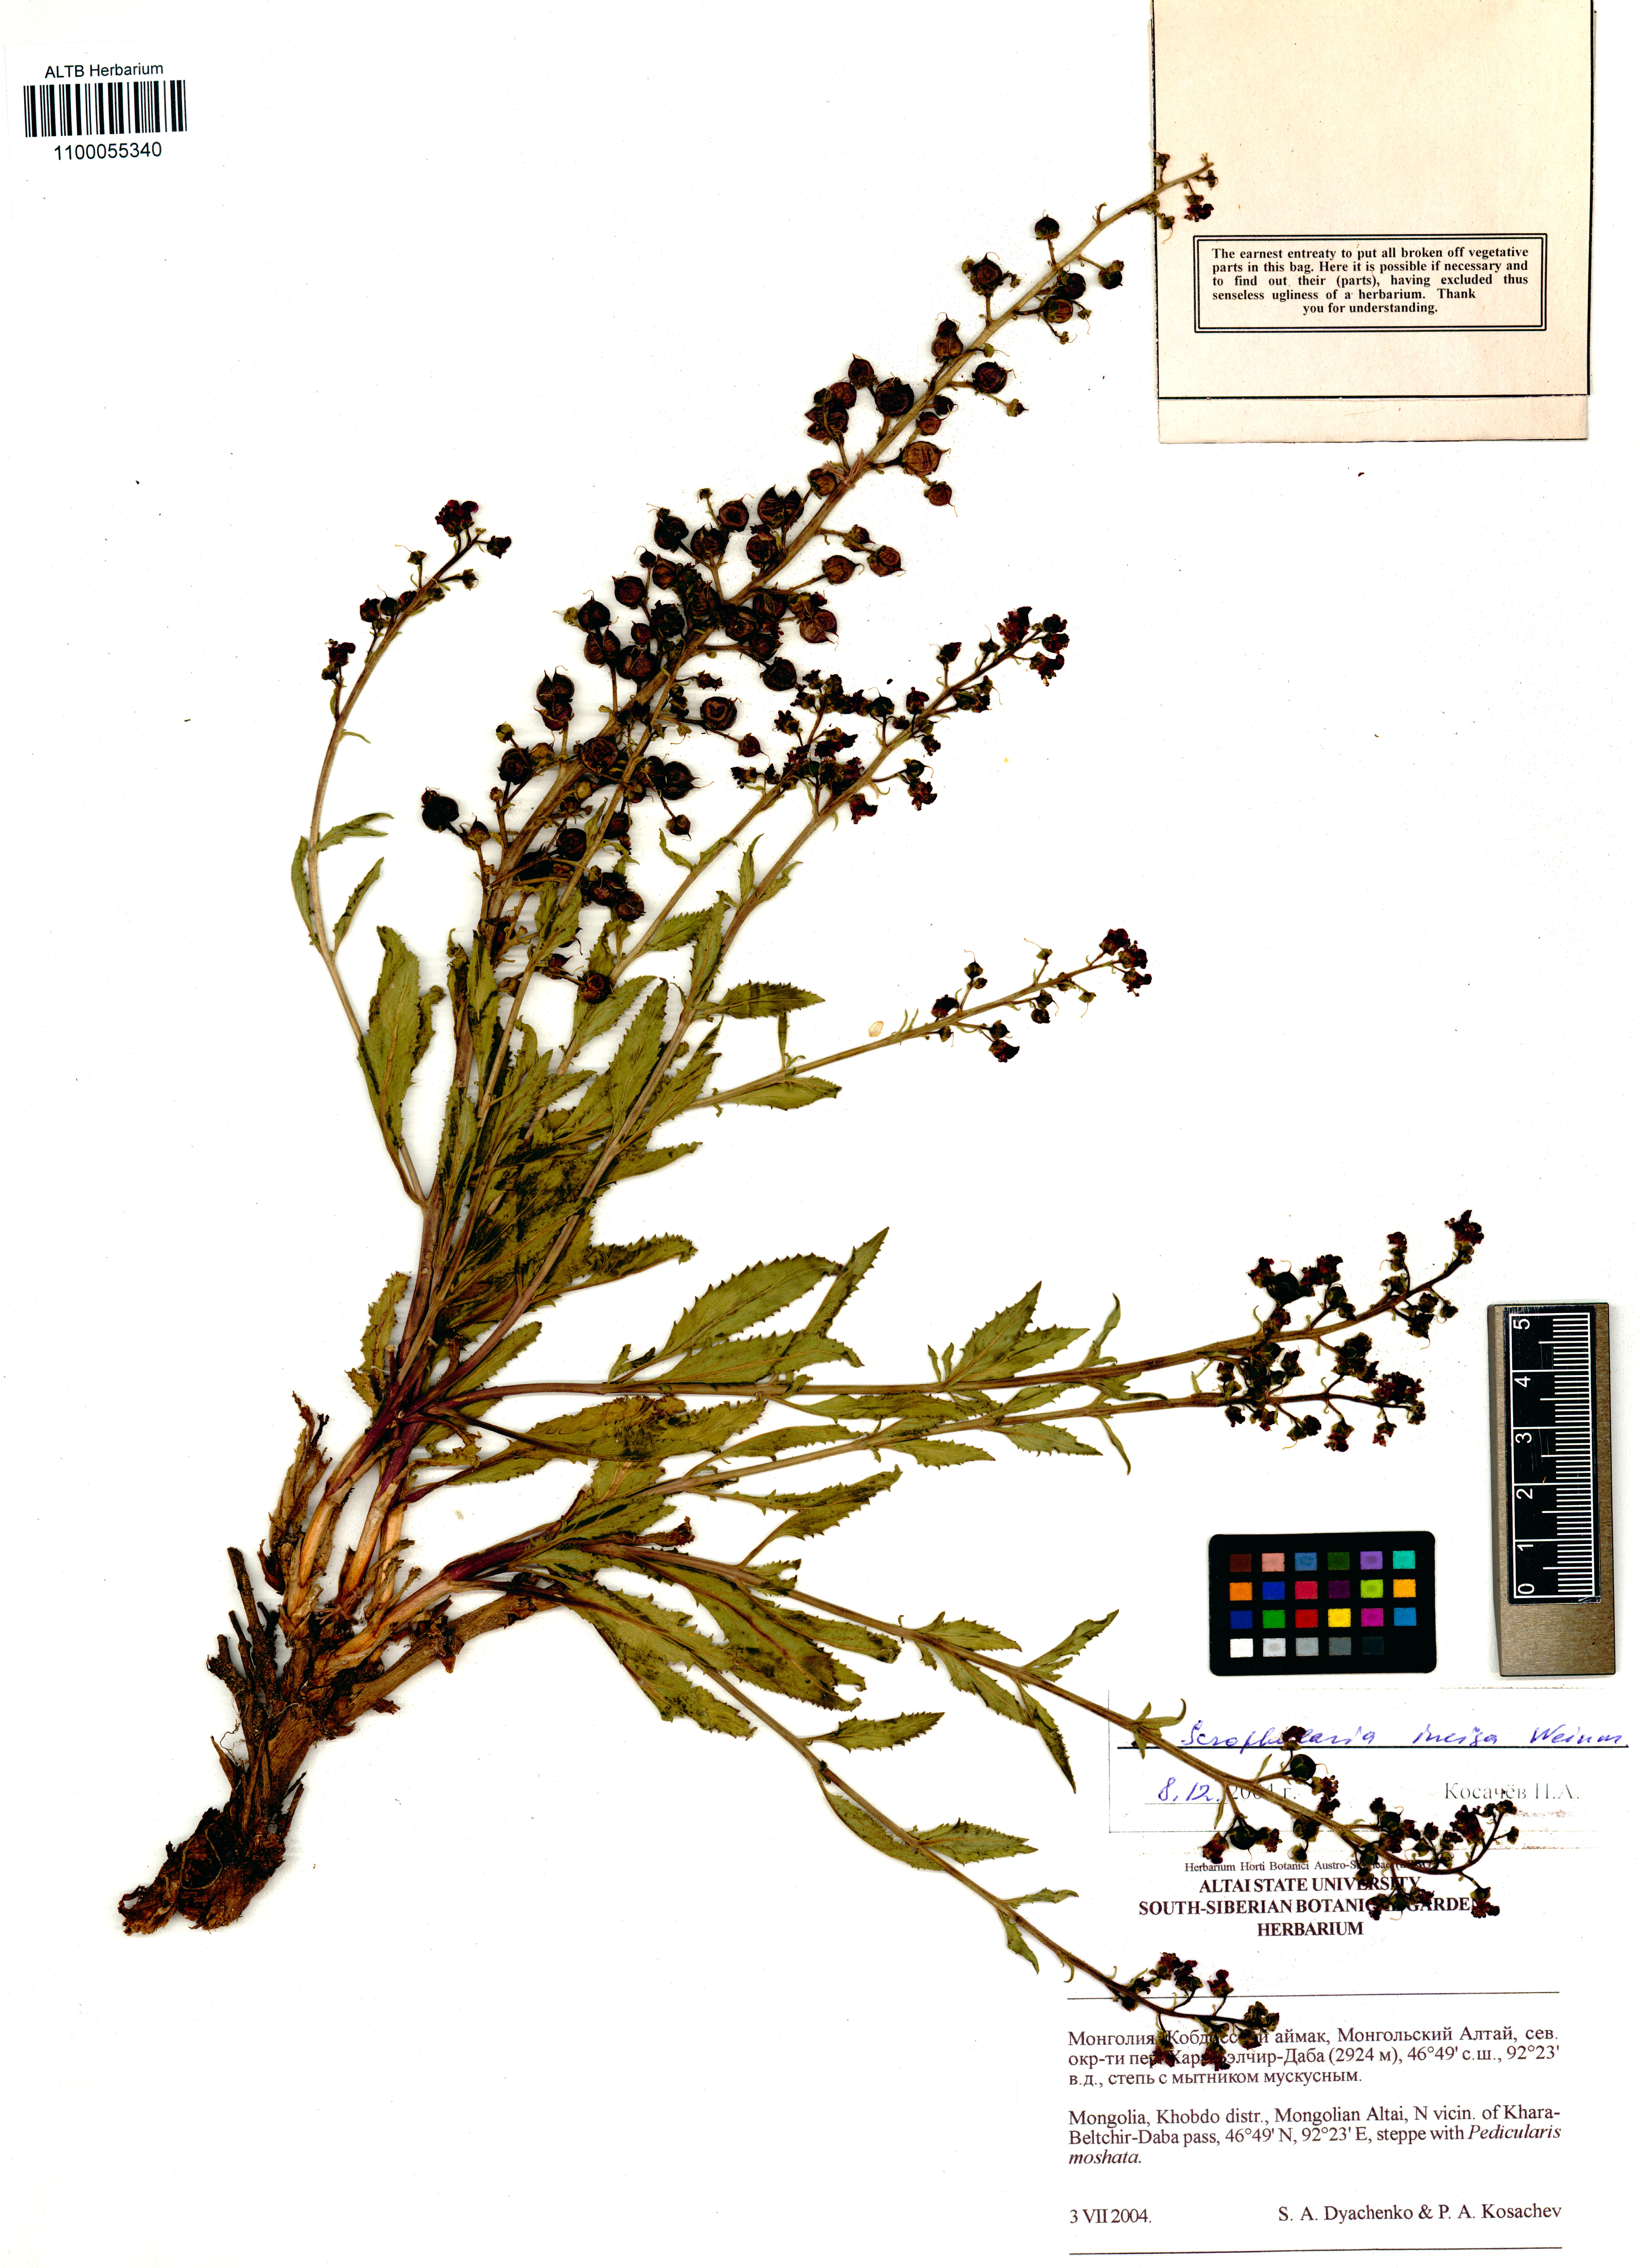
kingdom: Plantae
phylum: Tracheophyta
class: Magnoliopsida
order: Lamiales
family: Scrophulariaceae
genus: Scrophularia
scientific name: Scrophularia incisa
